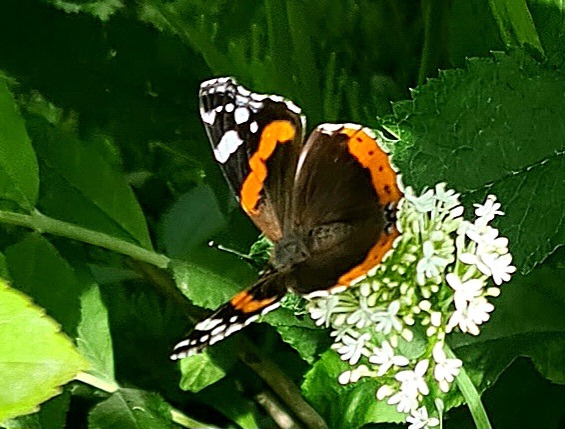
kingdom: Animalia
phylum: Arthropoda
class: Insecta
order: Lepidoptera
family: Nymphalidae
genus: Vanessa
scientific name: Vanessa atalanta
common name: Admiral
